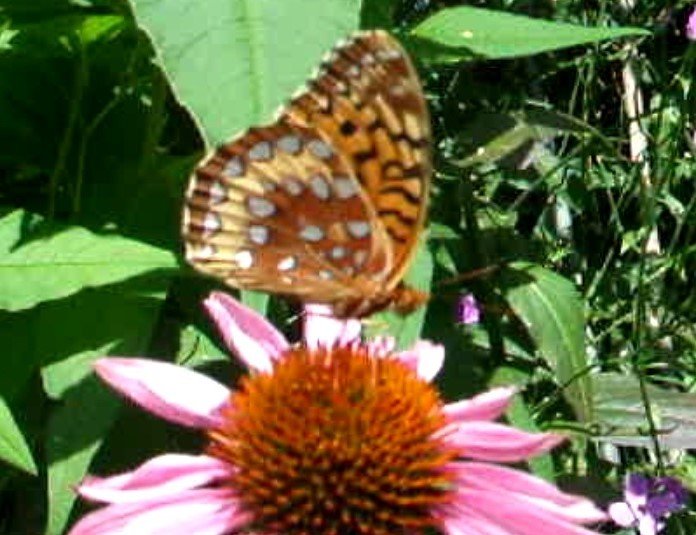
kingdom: Animalia
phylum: Arthropoda
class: Insecta
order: Lepidoptera
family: Nymphalidae
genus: Speyeria
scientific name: Speyeria cybele
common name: Great Spangled Fritillary
